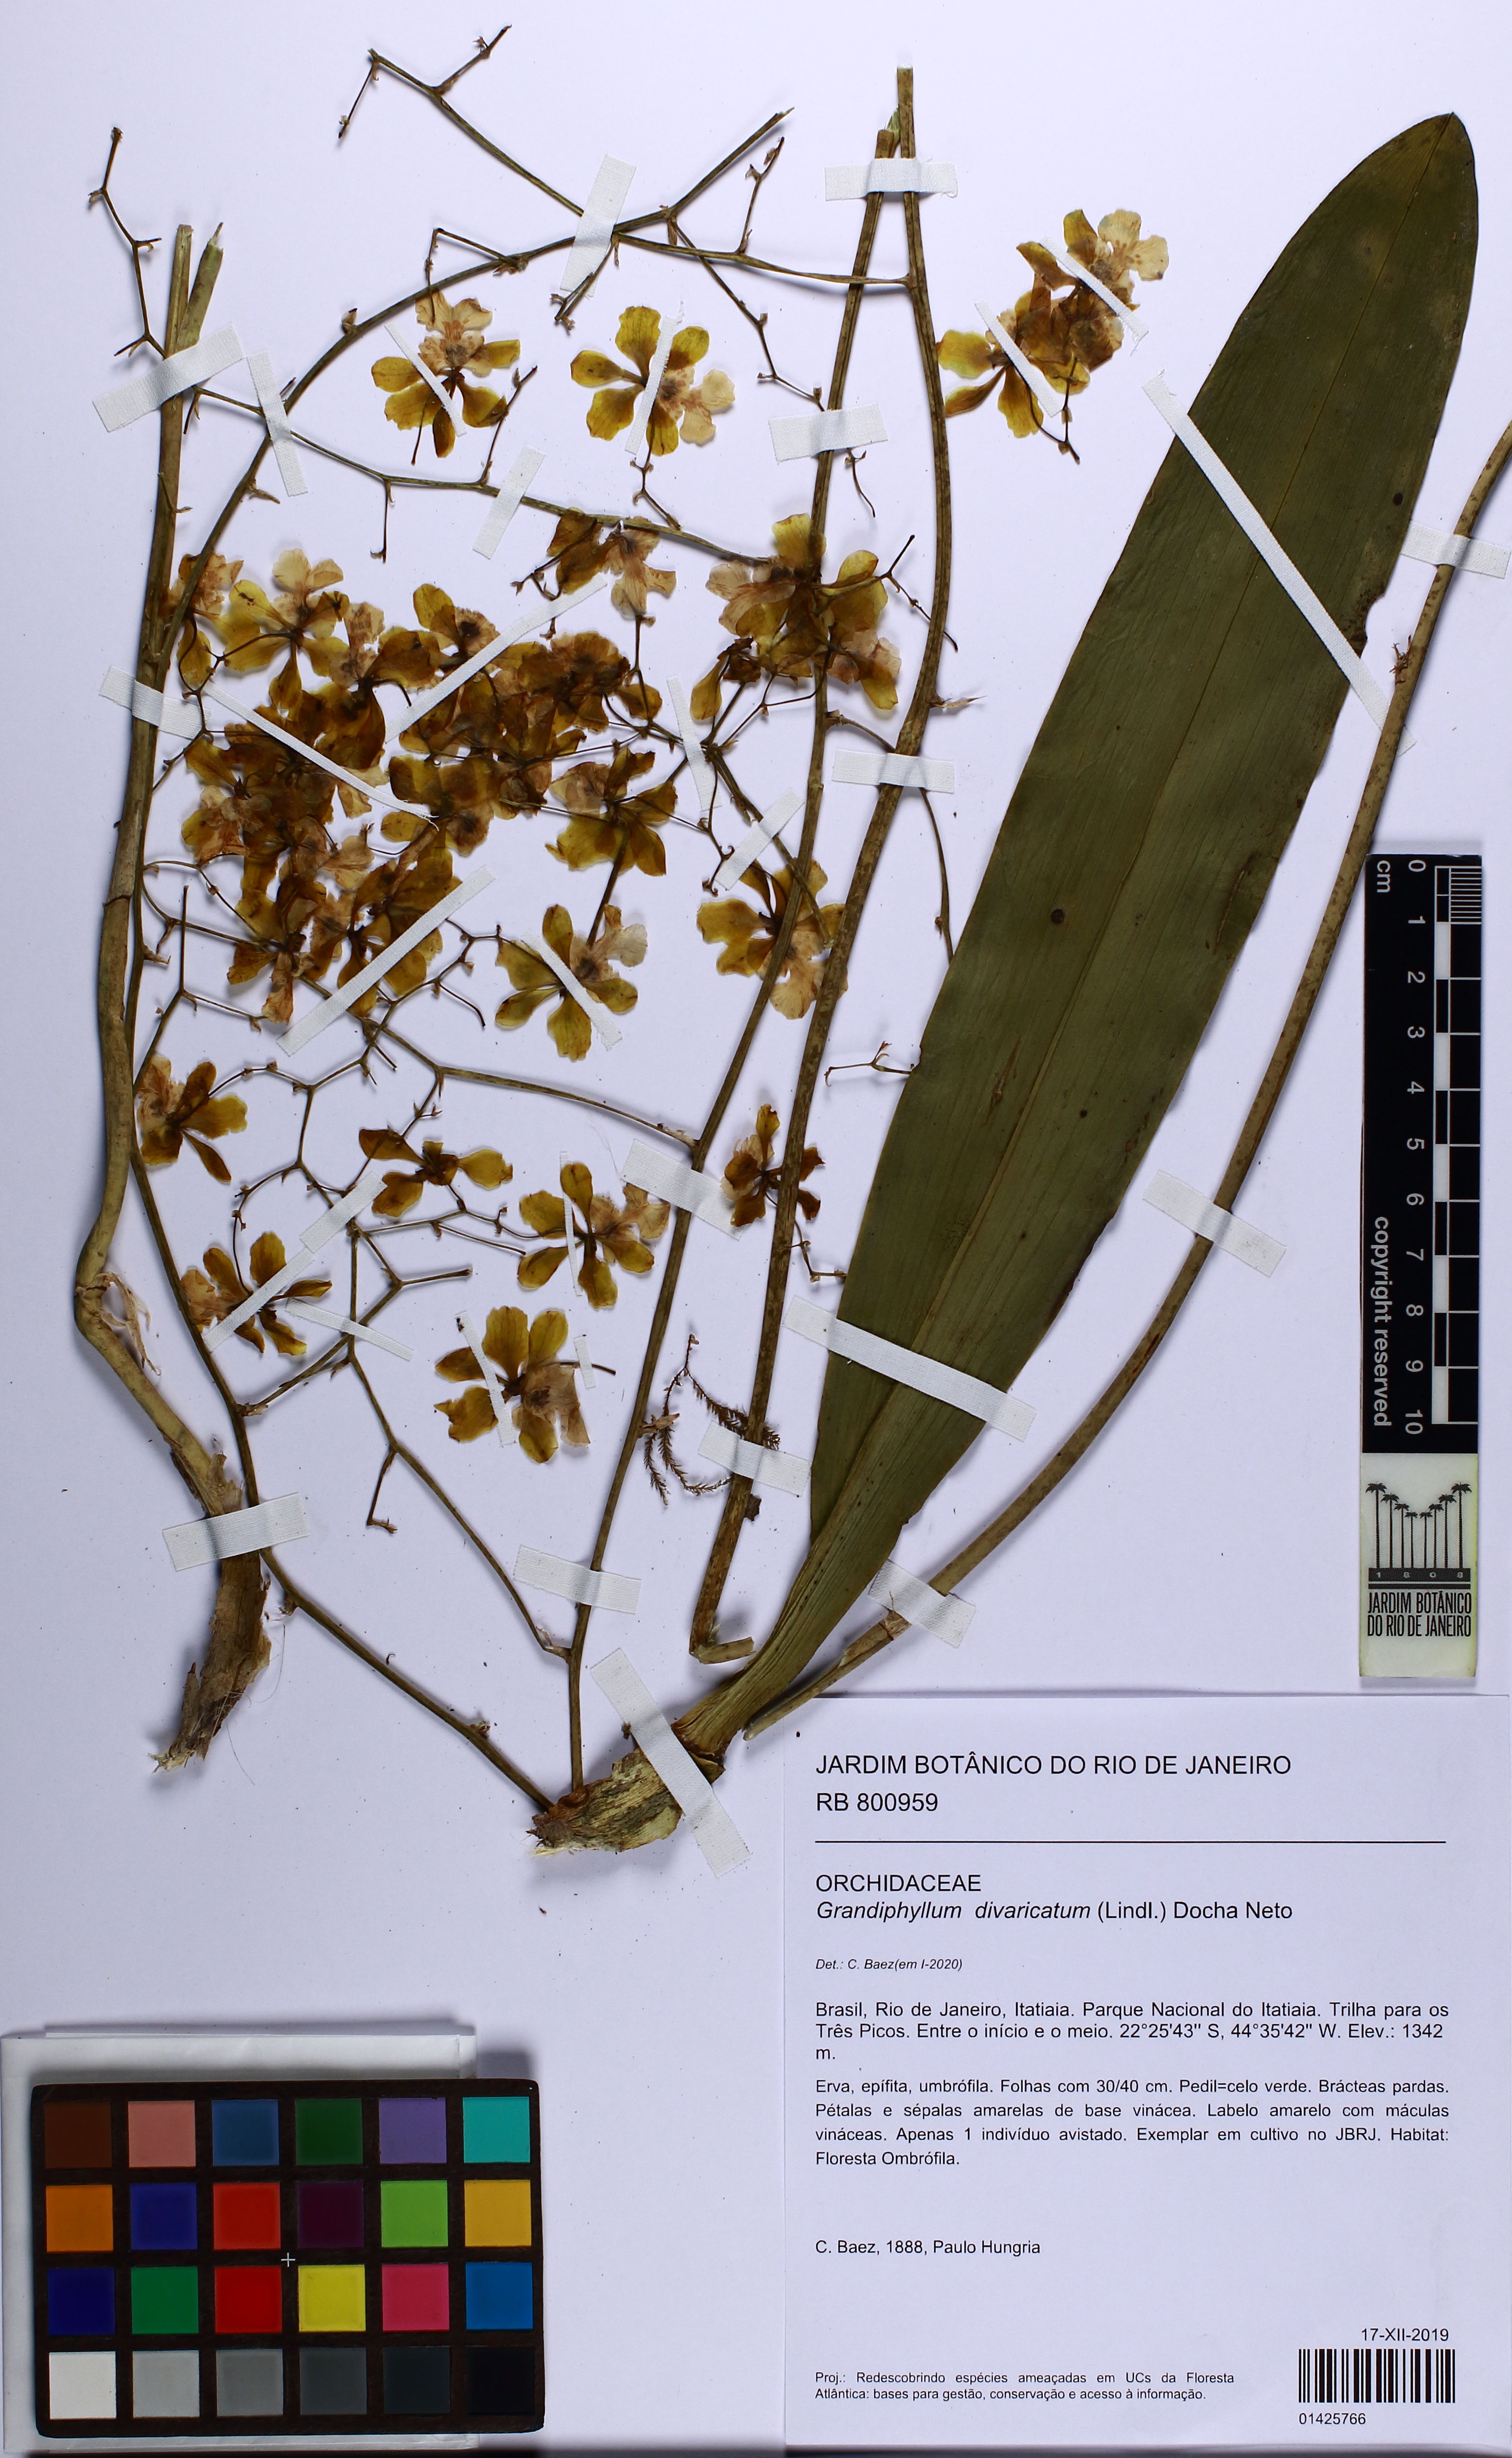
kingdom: Plantae
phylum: Tracheophyta
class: Liliopsida
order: Asparagales
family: Orchidaceae
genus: Grandiphyllum
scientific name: Grandiphyllum divaricatum
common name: Mule-ear orchid
